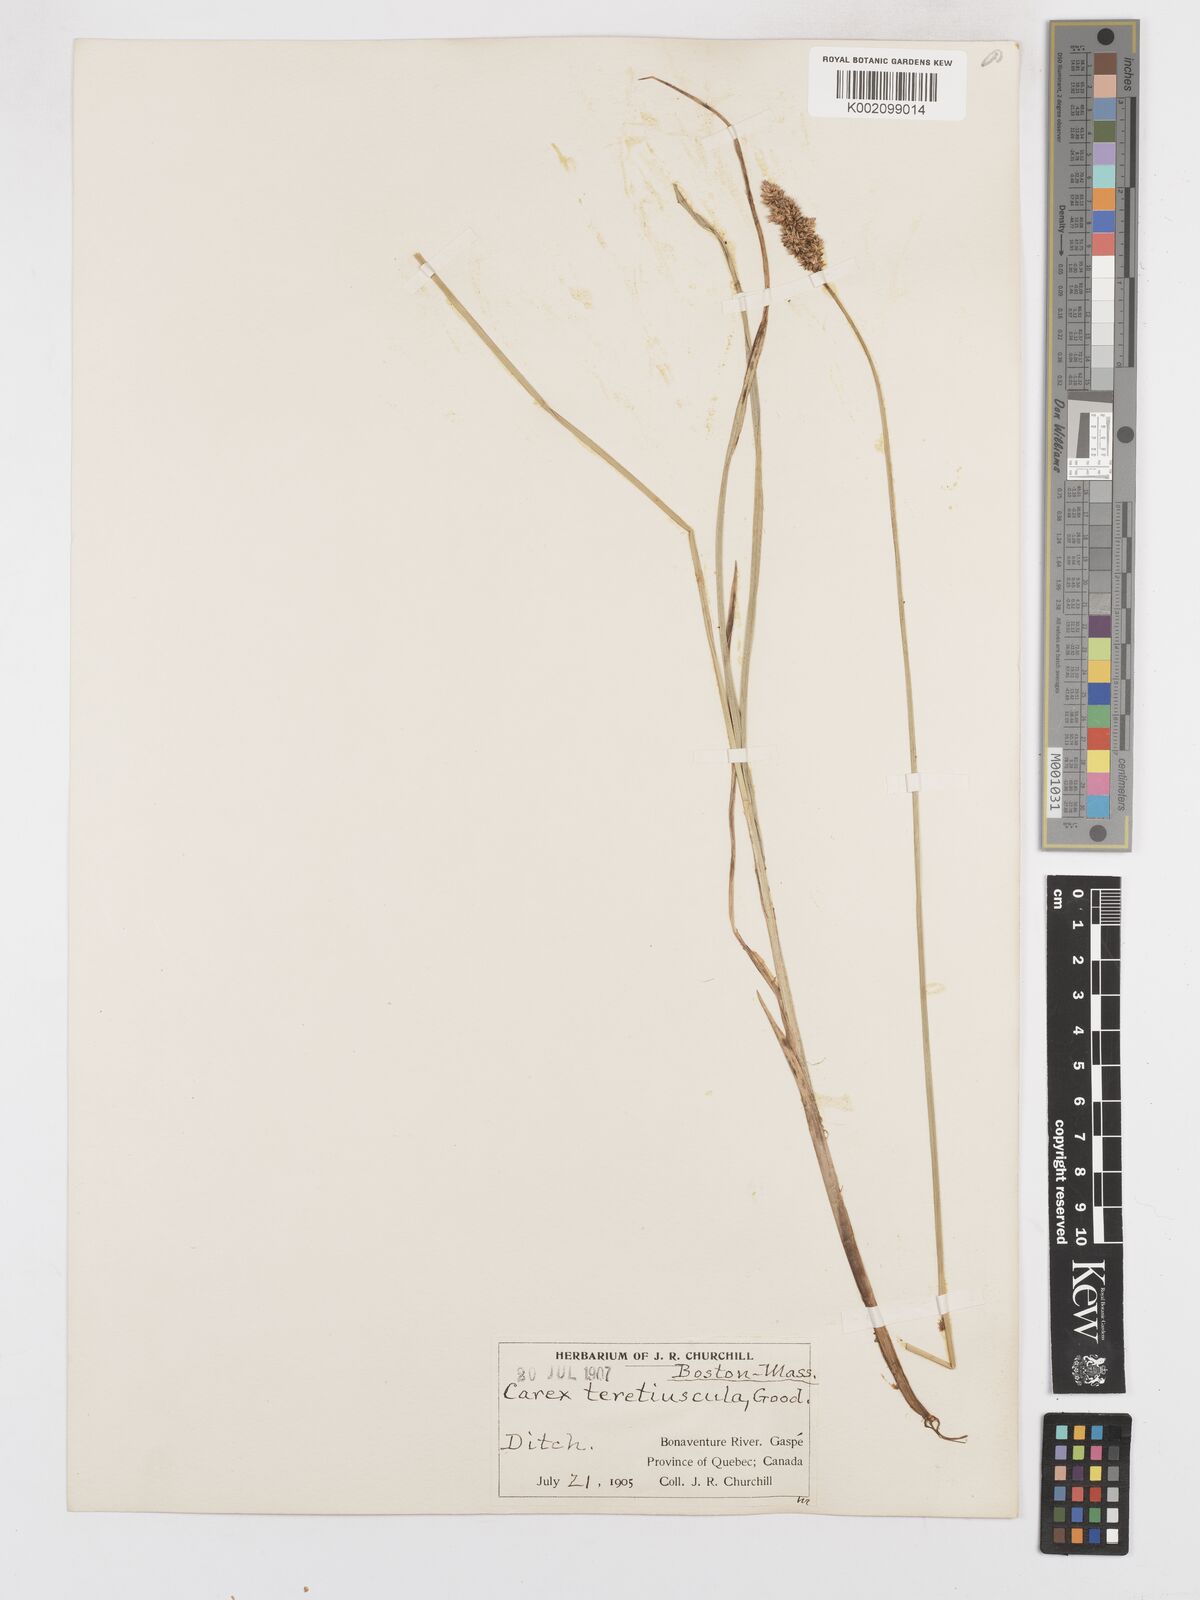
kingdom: Plantae
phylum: Tracheophyta
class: Liliopsida
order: Poales
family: Cyperaceae
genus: Carex
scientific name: Carex diandra
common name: Lesser tussock-sedge
